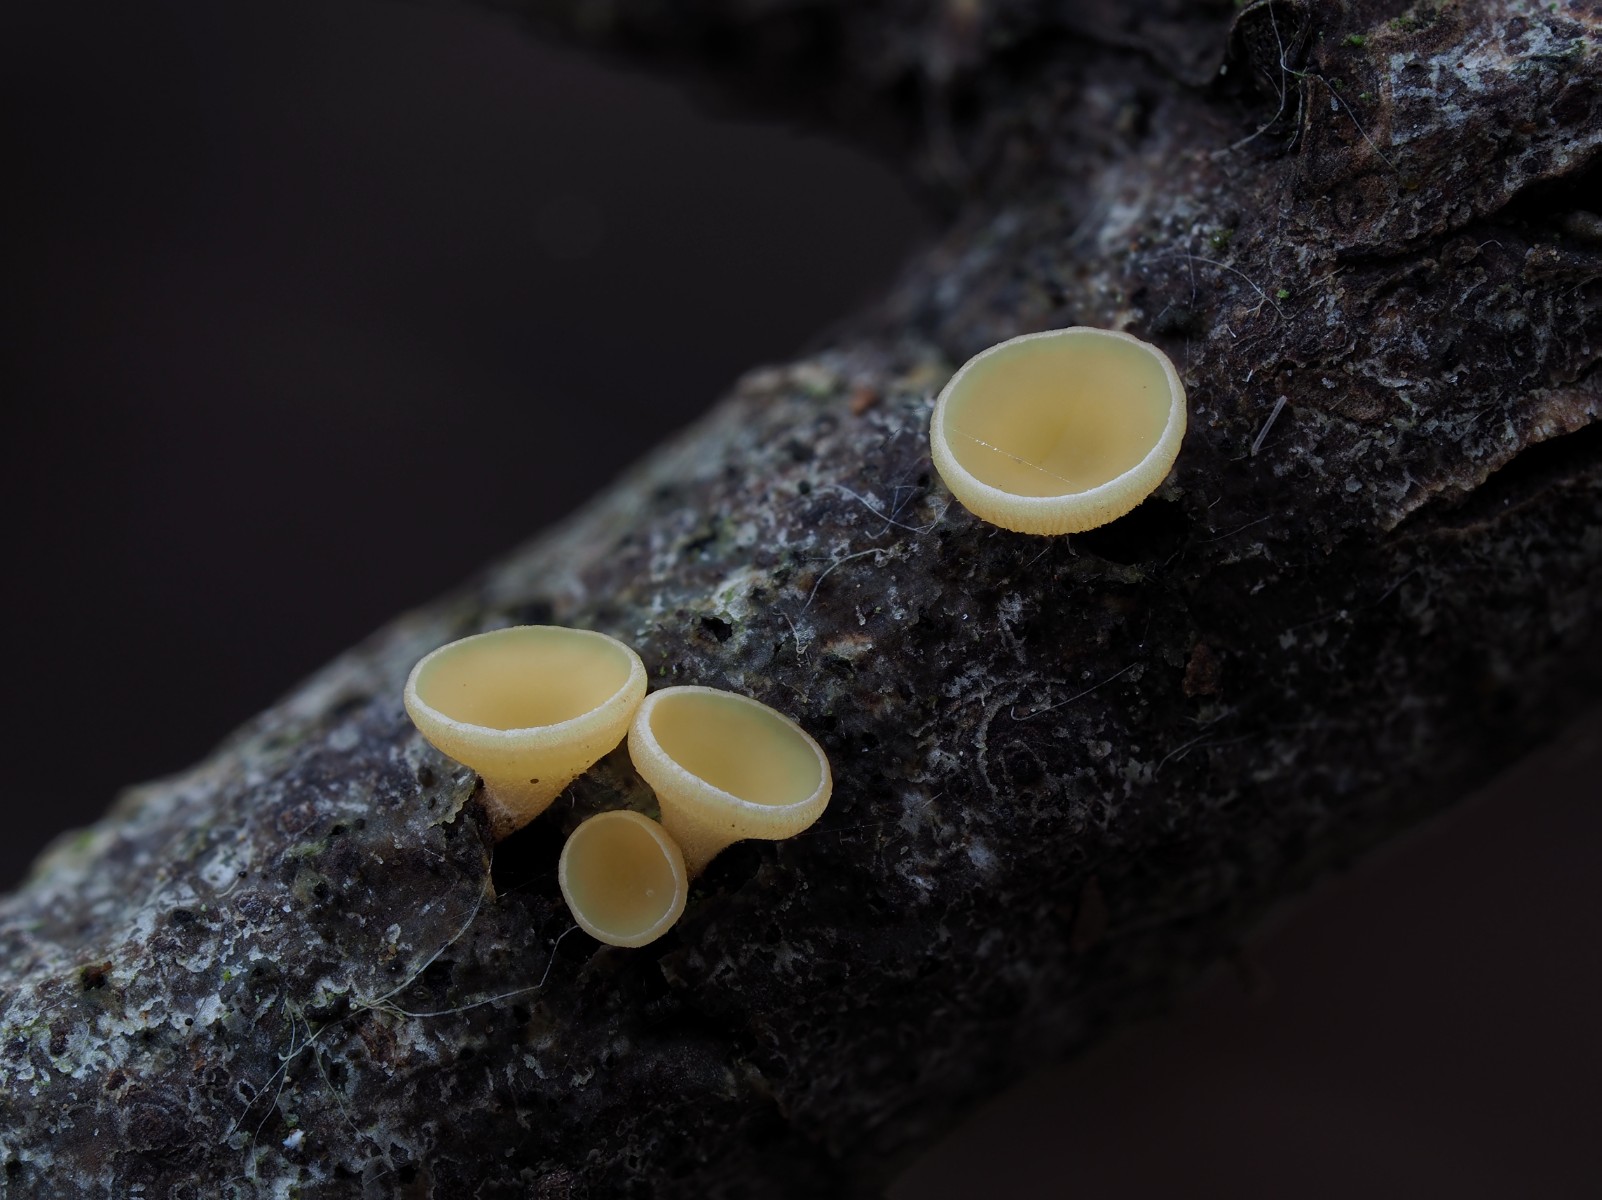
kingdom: Fungi
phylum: Ascomycota
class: Leotiomycetes
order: Helotiales
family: Helotiaceae
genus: Hymenoscyphus
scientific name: Hymenoscyphus calyculus
